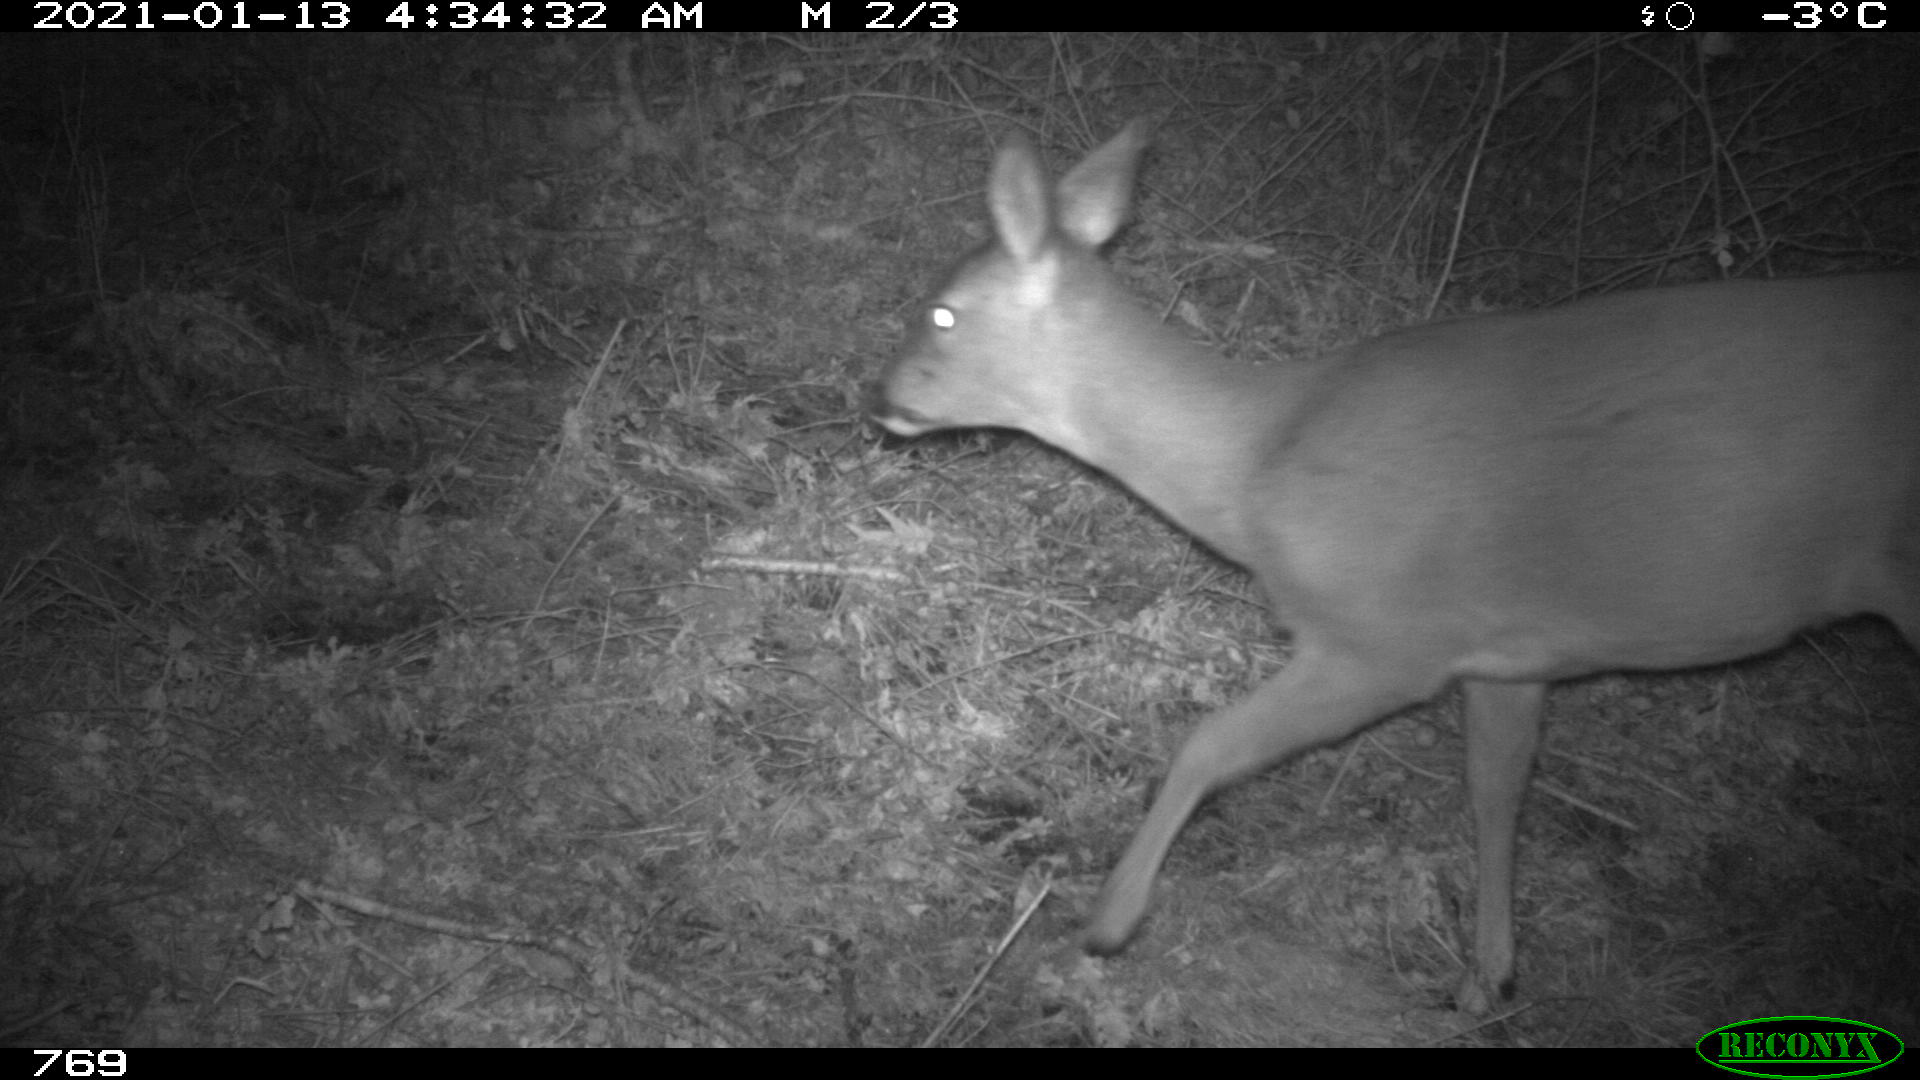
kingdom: Animalia
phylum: Chordata
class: Mammalia
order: Artiodactyla
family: Cervidae
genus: Capreolus
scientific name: Capreolus capreolus
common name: Western roe deer
